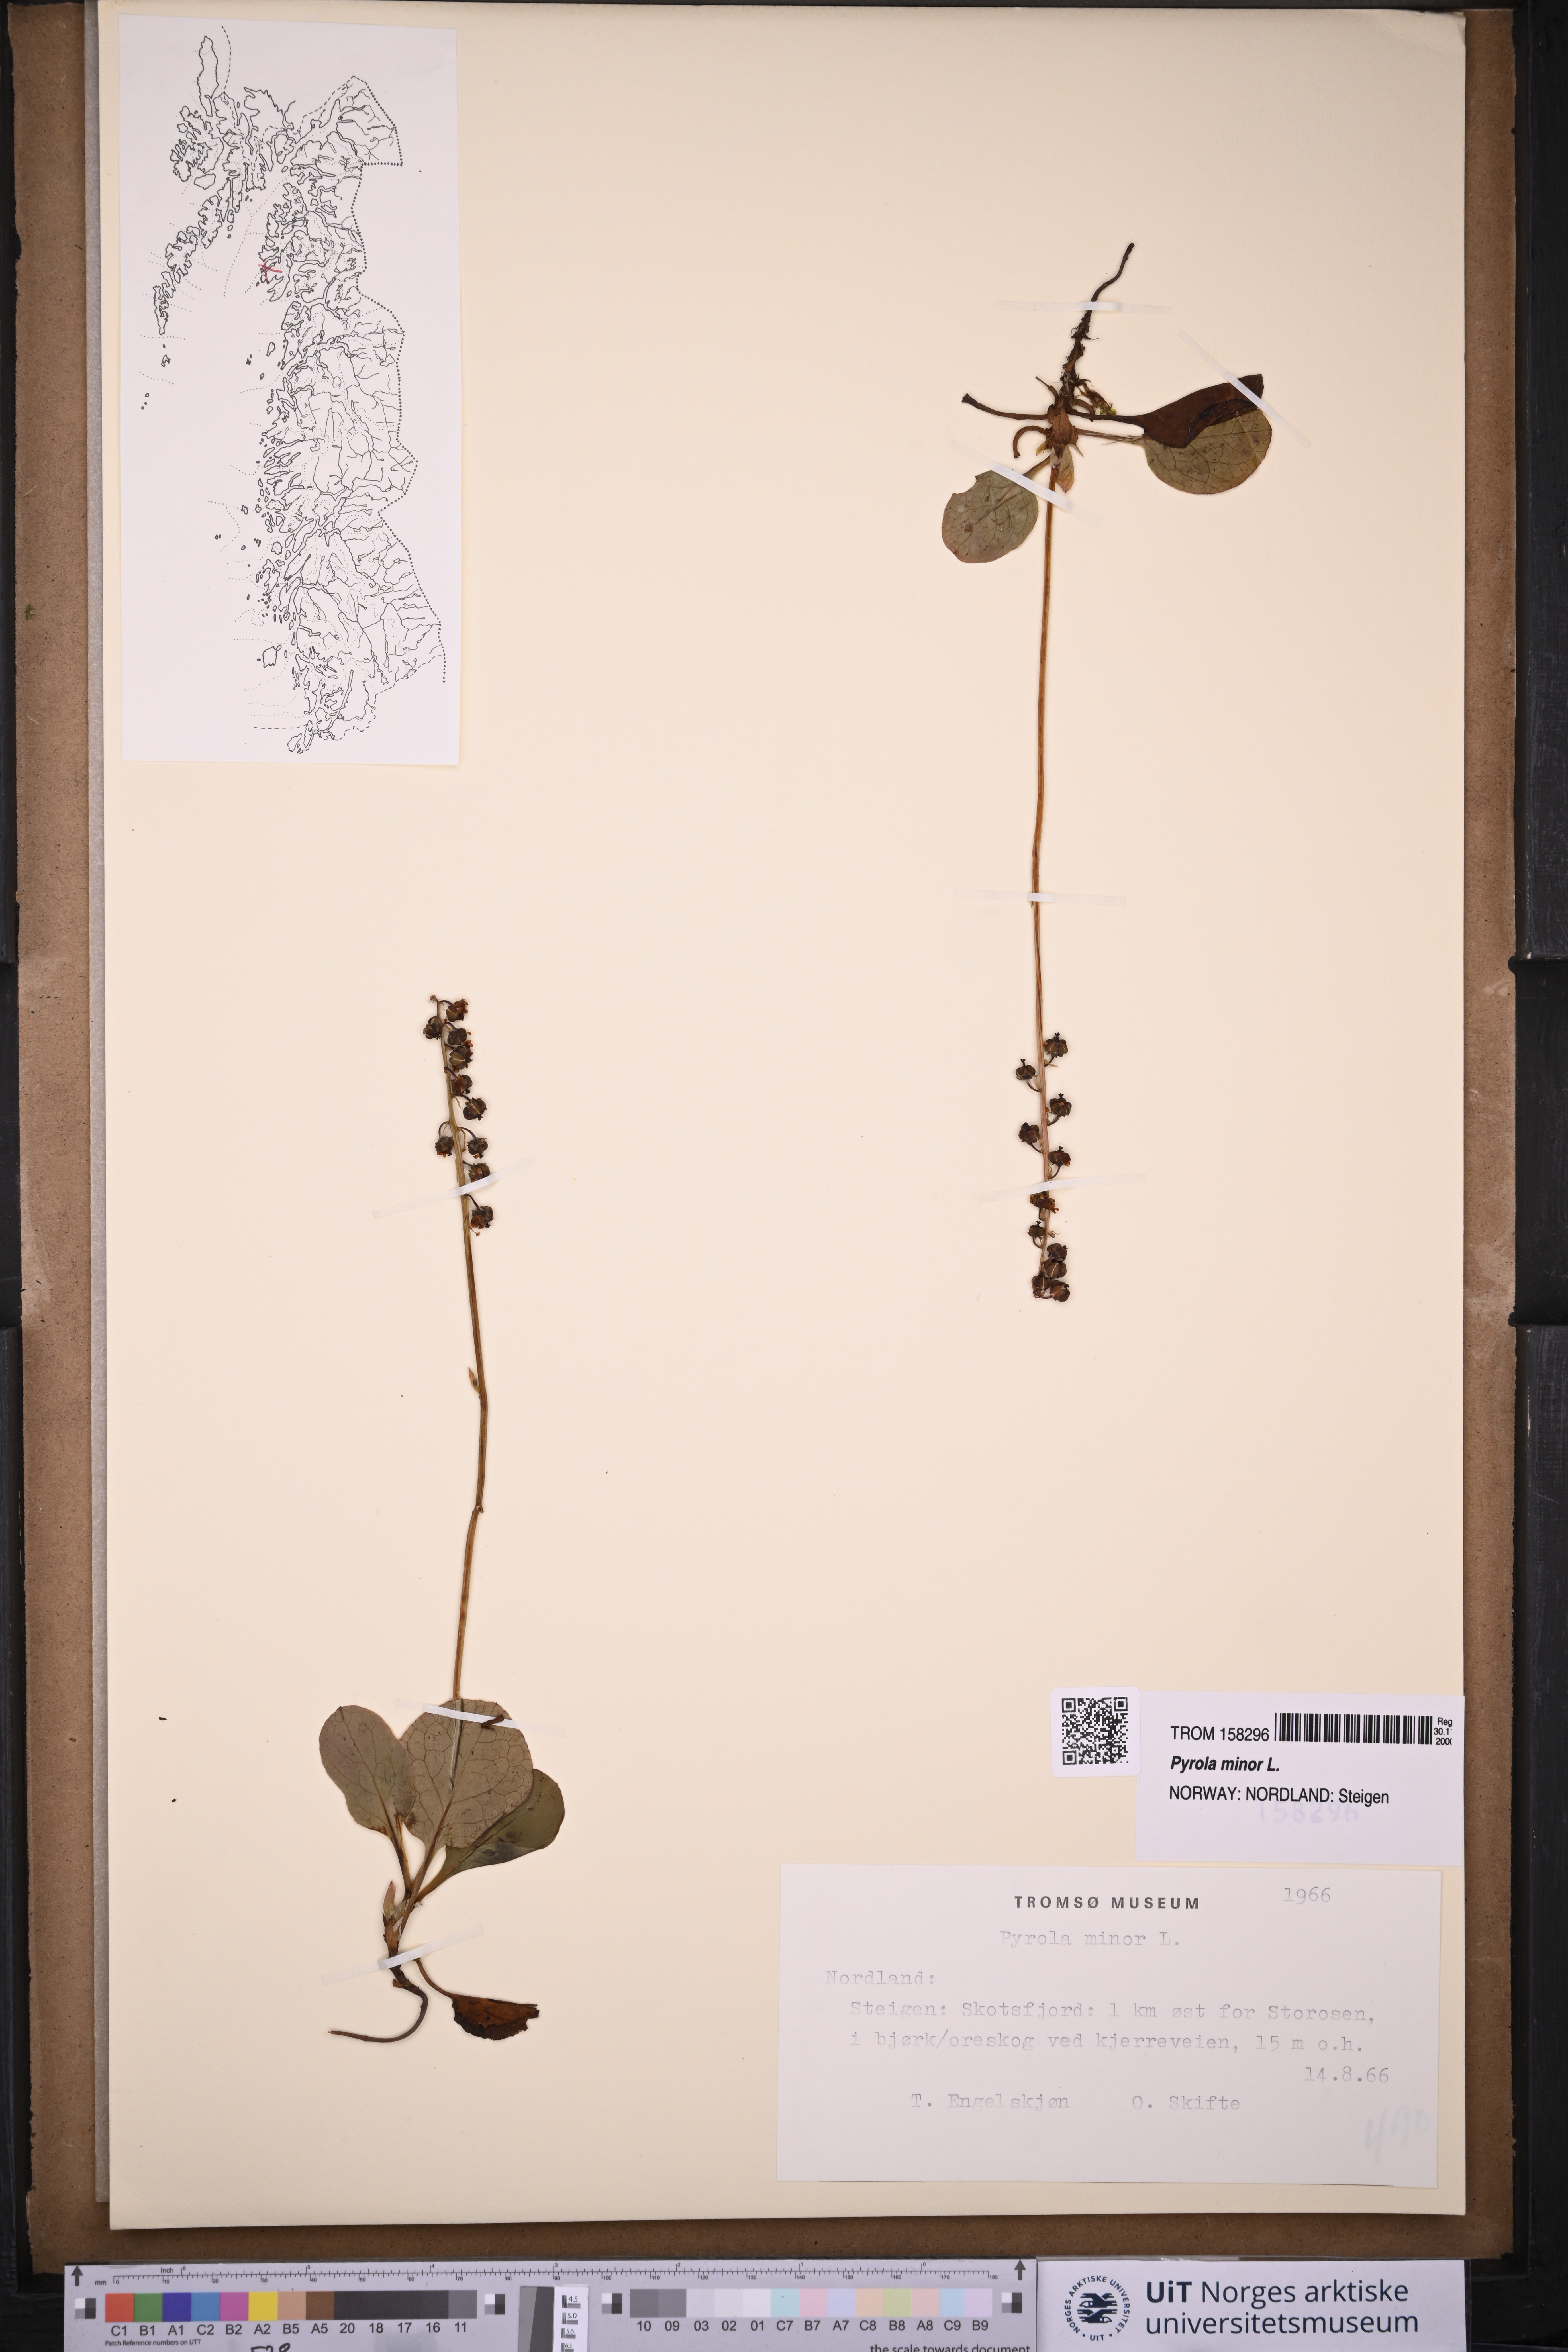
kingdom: Plantae
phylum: Tracheophyta
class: Magnoliopsida
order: Ericales
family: Ericaceae
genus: Pyrola
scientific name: Pyrola minor
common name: Common wintergreen
